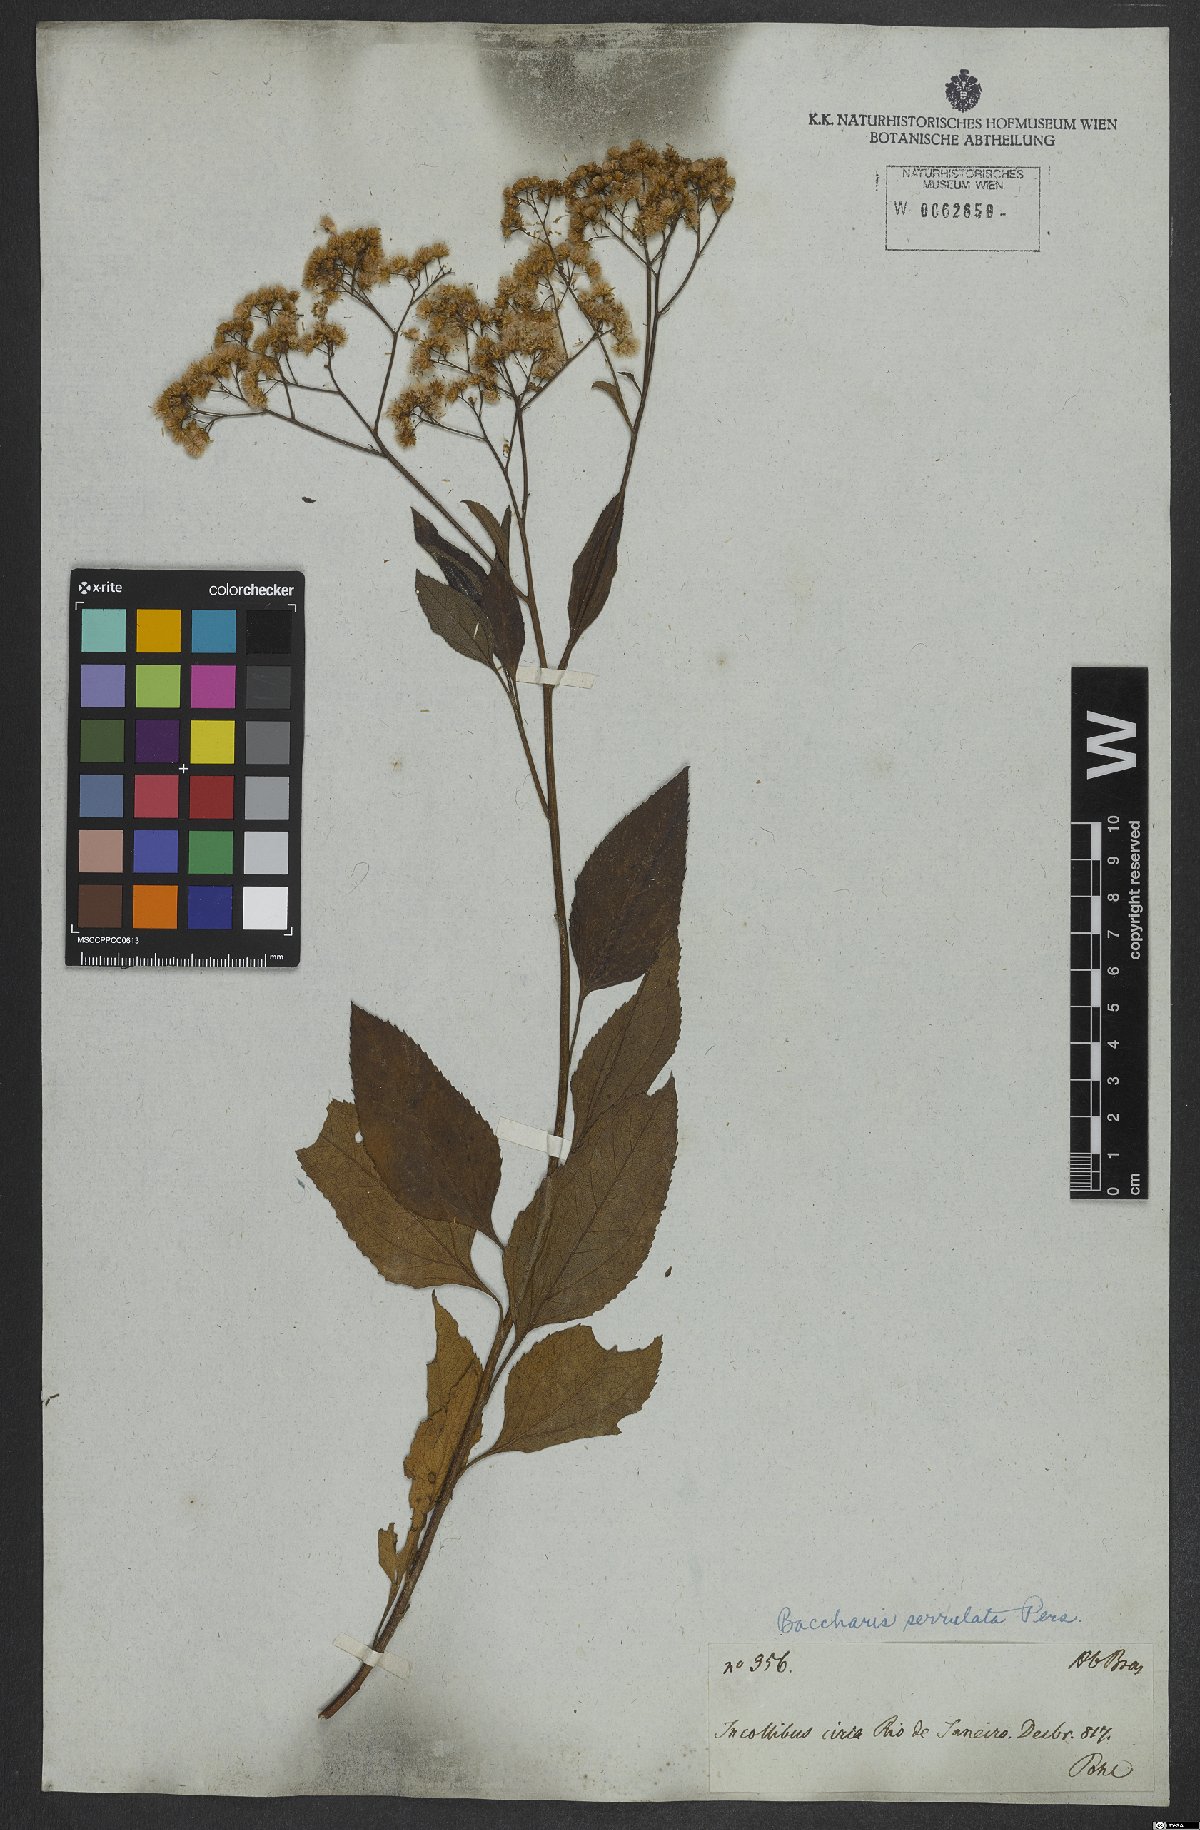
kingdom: Plantae
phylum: Tracheophyta
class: Magnoliopsida
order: Asterales
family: Asteraceae
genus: Archibaccharis
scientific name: Archibaccharis vulneraria
